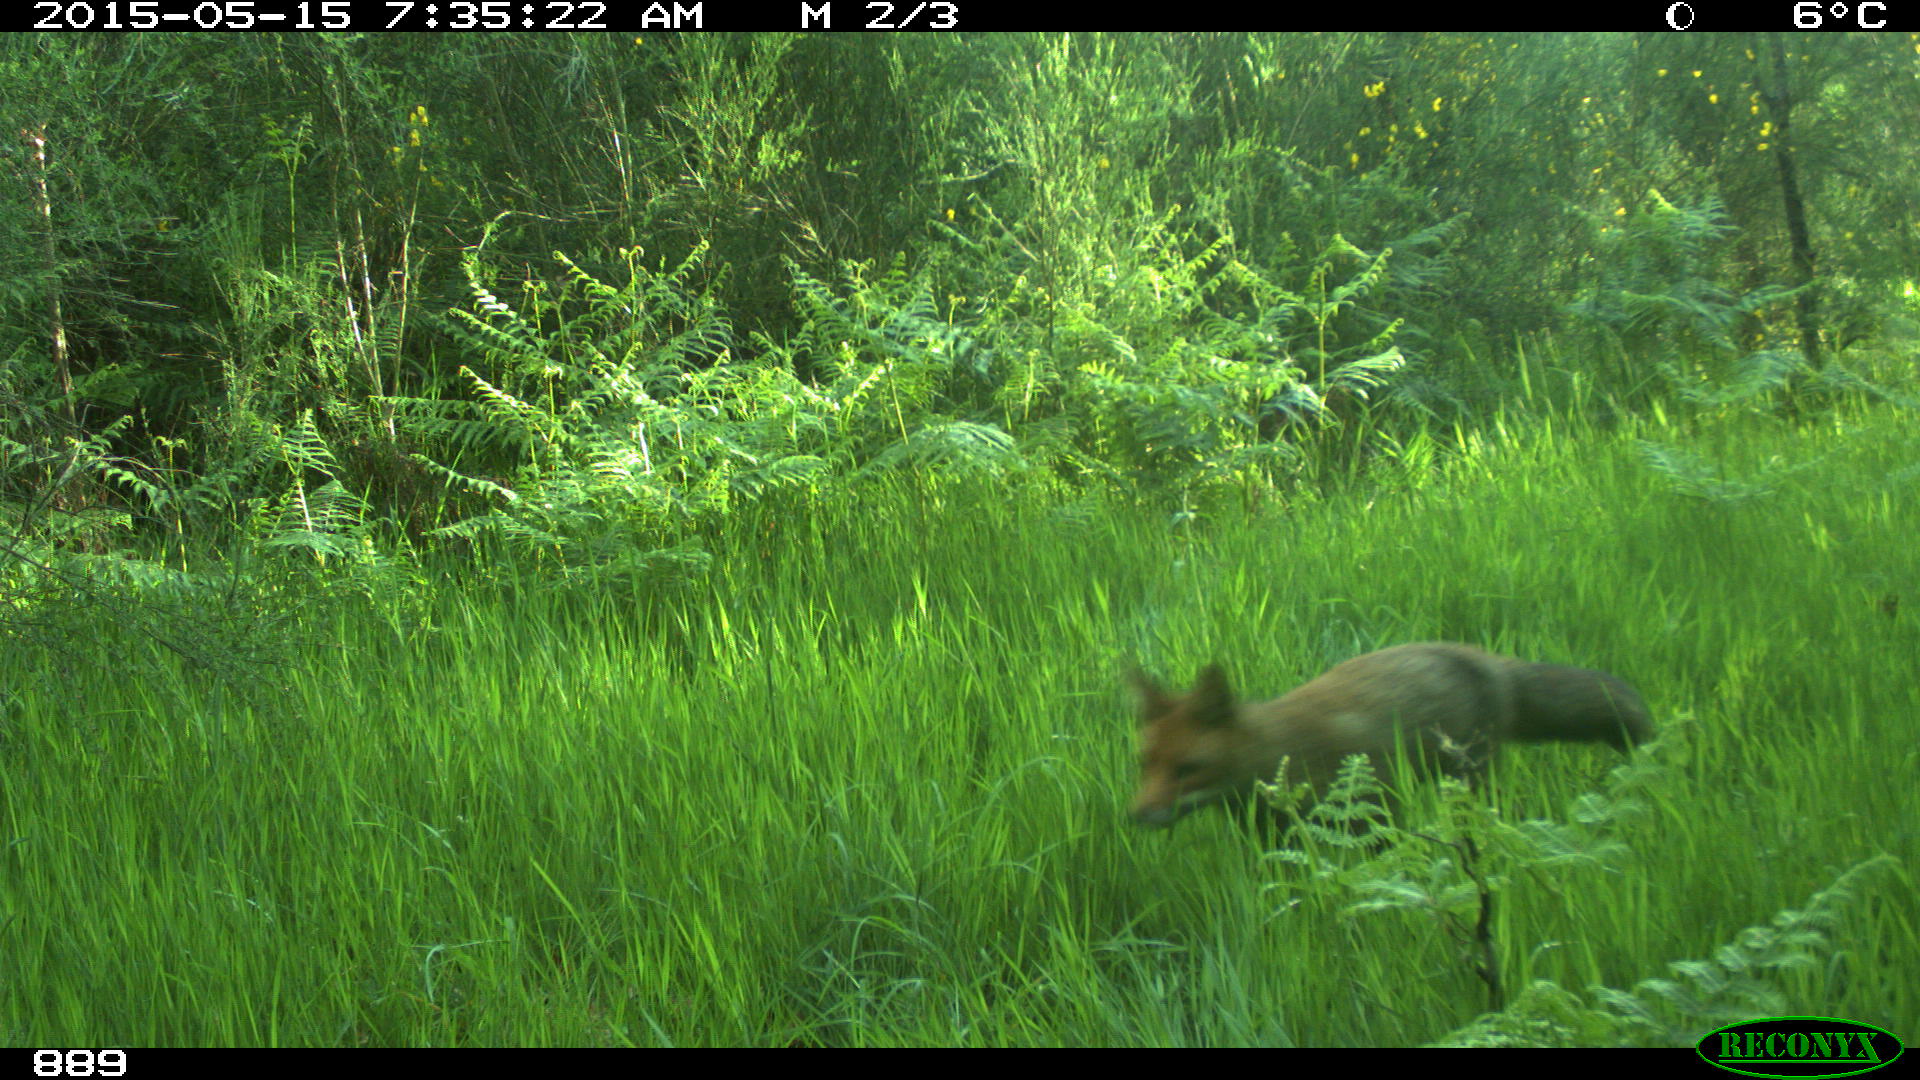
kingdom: Animalia
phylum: Chordata
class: Mammalia
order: Carnivora
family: Canidae
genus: Vulpes
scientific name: Vulpes vulpes
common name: Red fox
